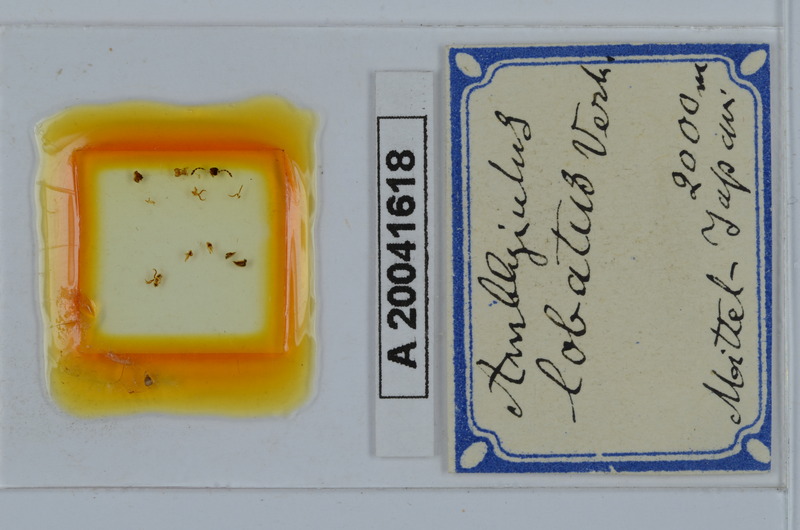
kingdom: Animalia
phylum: Arthropoda
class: Diplopoda
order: Julida
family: Julidae
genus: Japanioiulus
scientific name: Japanioiulus lobatus
